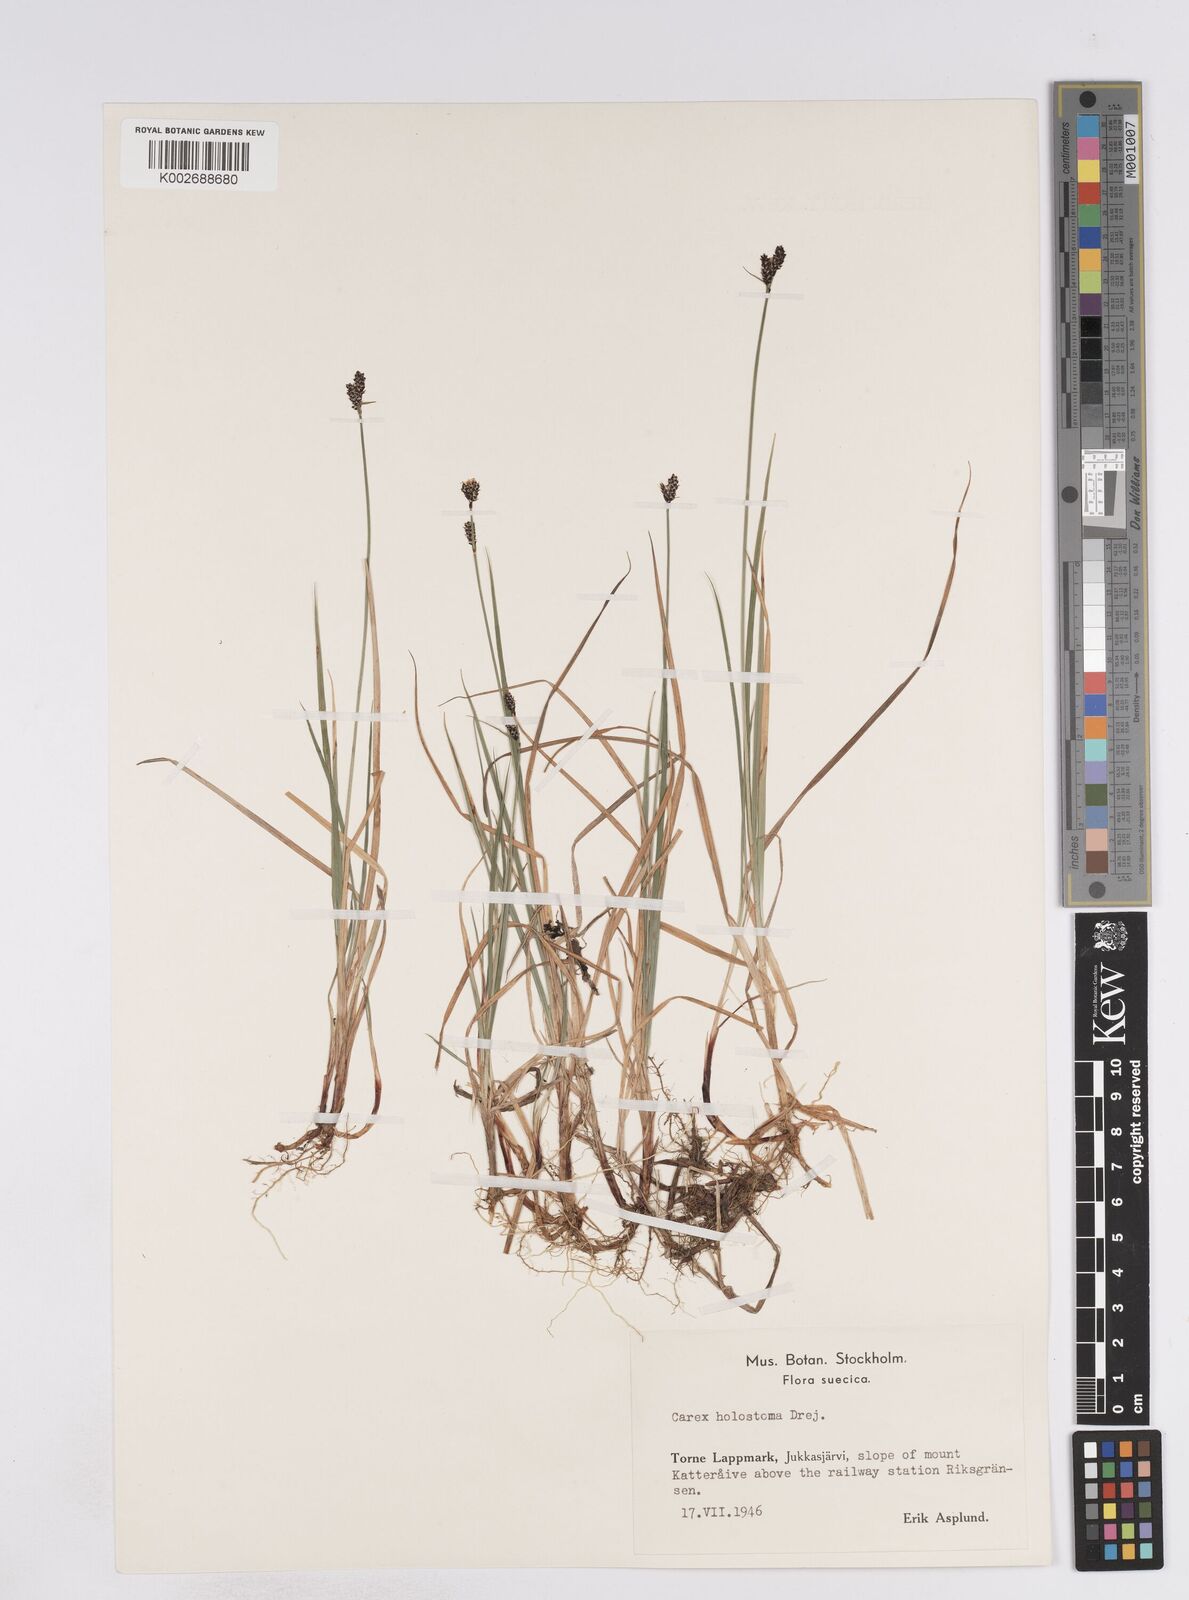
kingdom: Plantae
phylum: Tracheophyta
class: Liliopsida
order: Poales
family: Cyperaceae
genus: Carex
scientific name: Carex holostoma
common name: Arctic marsh sedge
